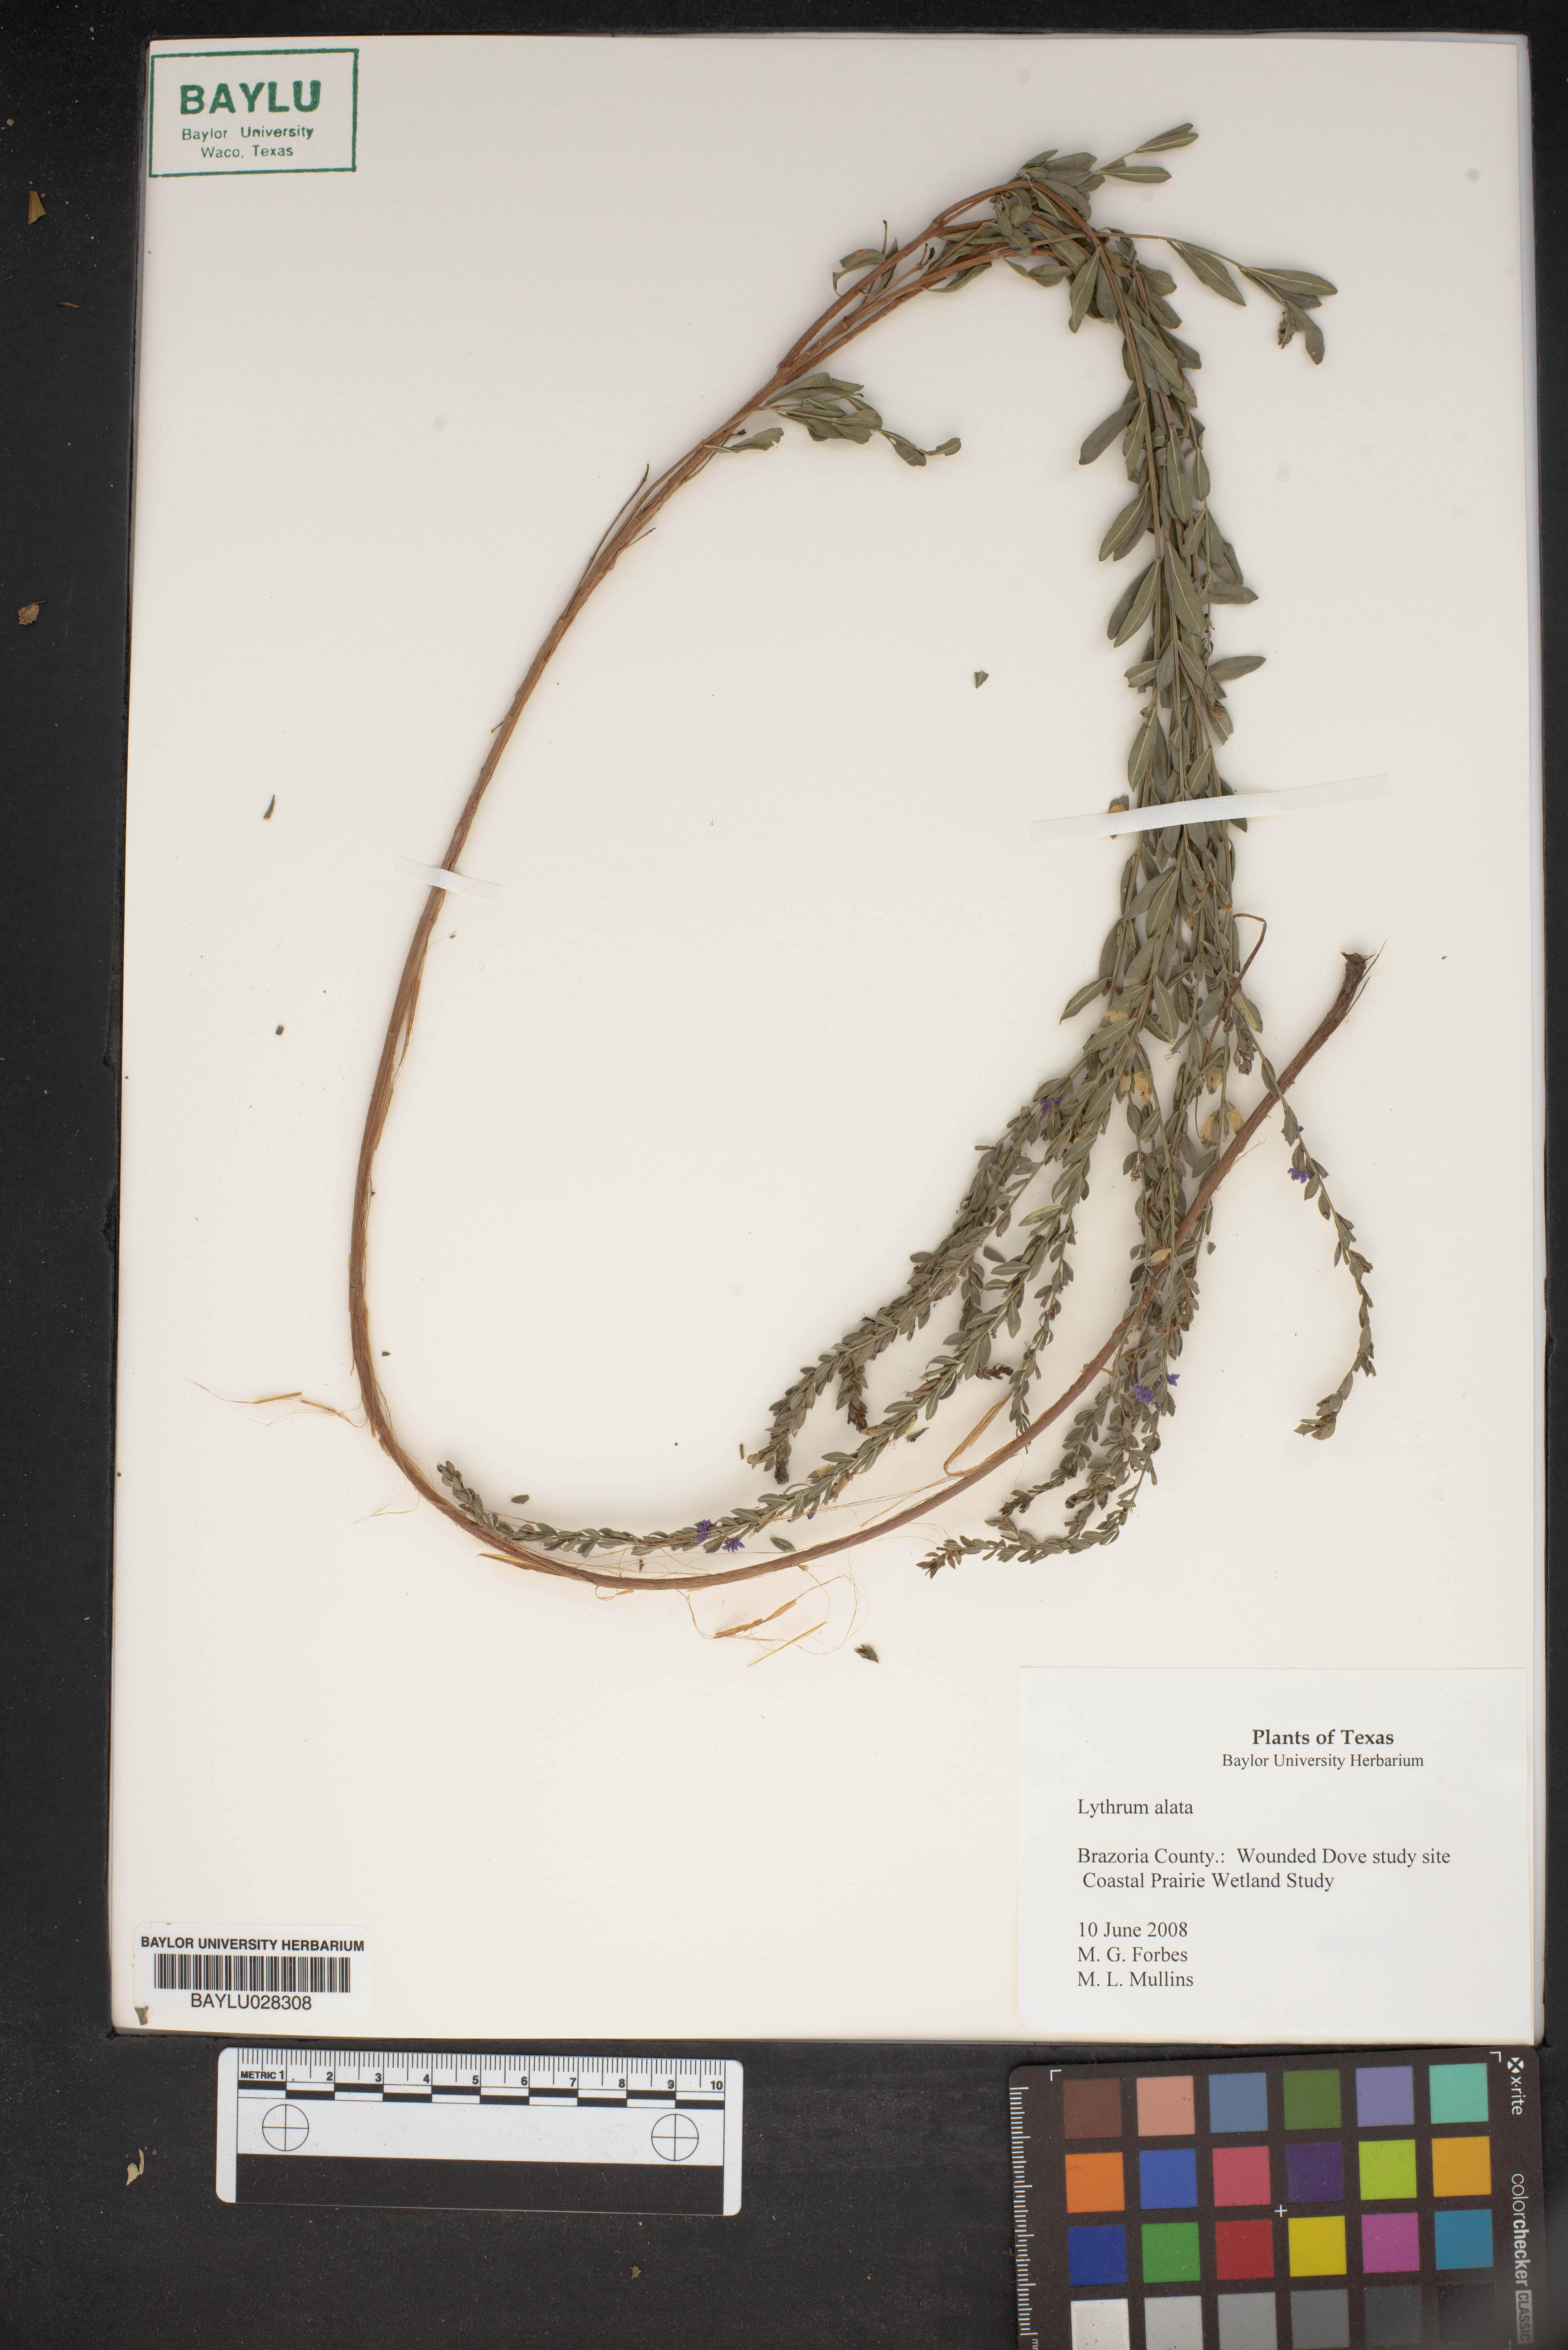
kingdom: Plantae
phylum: Tracheophyta
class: Magnoliopsida
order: Myrtales
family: Lythraceae
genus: Lythrum
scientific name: Lythrum alatum
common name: Winged loosestrife
